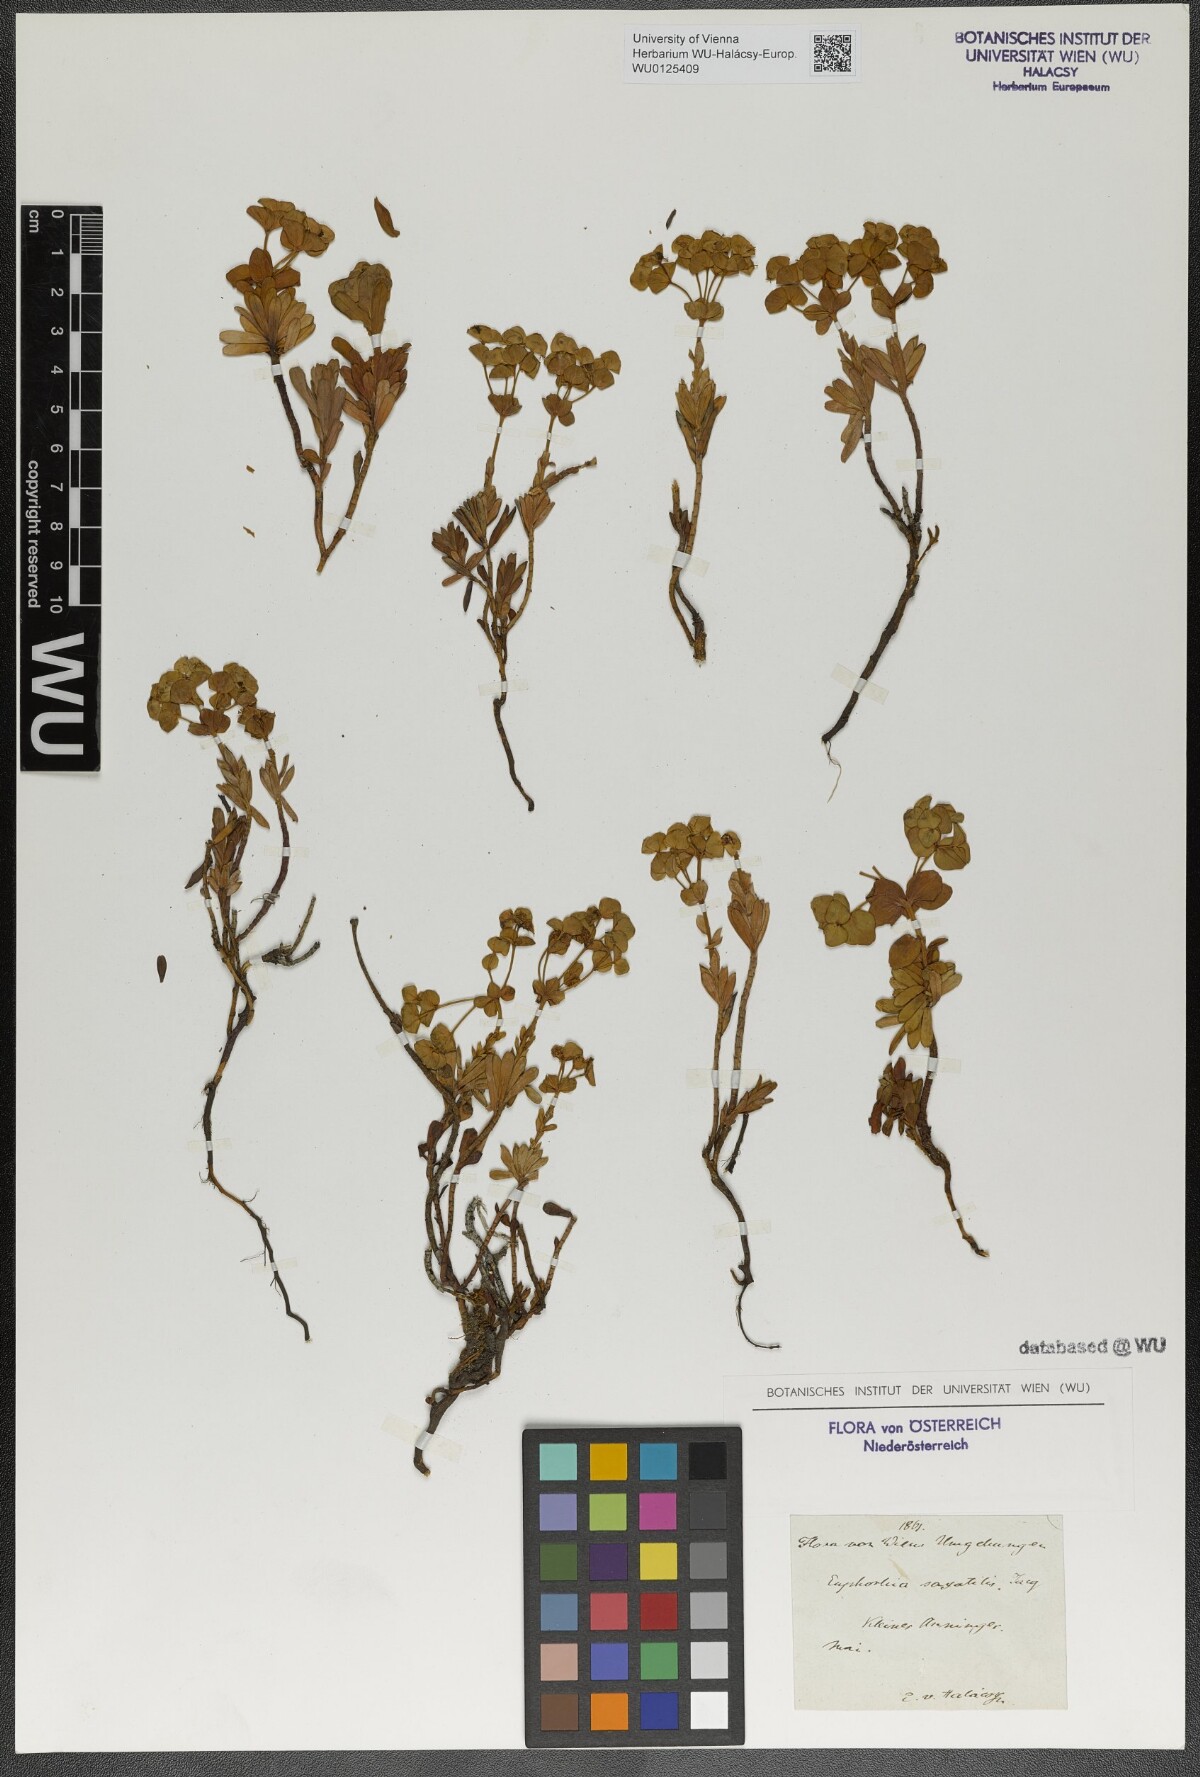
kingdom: Plantae
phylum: Tracheophyta
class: Magnoliopsida
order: Malpighiales
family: Euphorbiaceae
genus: Euphorbia
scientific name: Euphorbia saxatilis
